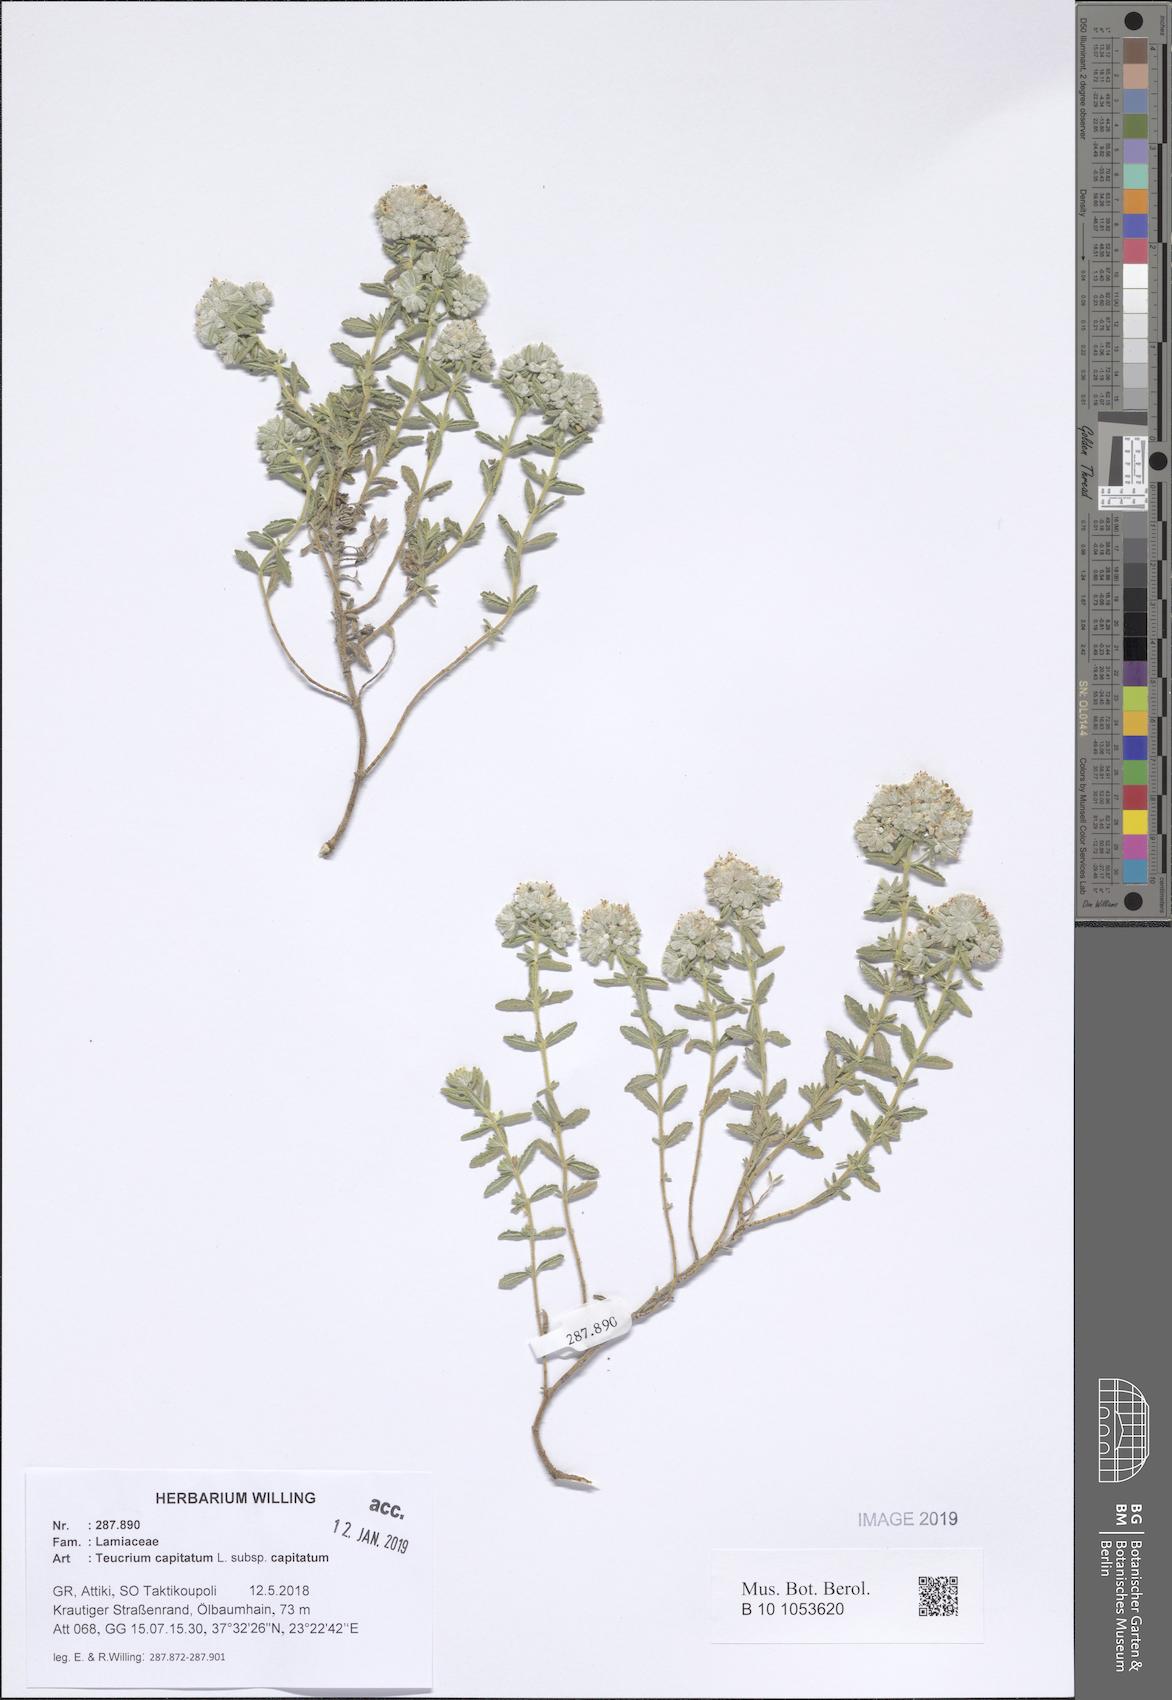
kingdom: Plantae
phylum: Tracheophyta
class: Magnoliopsida
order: Lamiales
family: Lamiaceae
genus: Teucrium
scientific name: Teucrium capitatum
